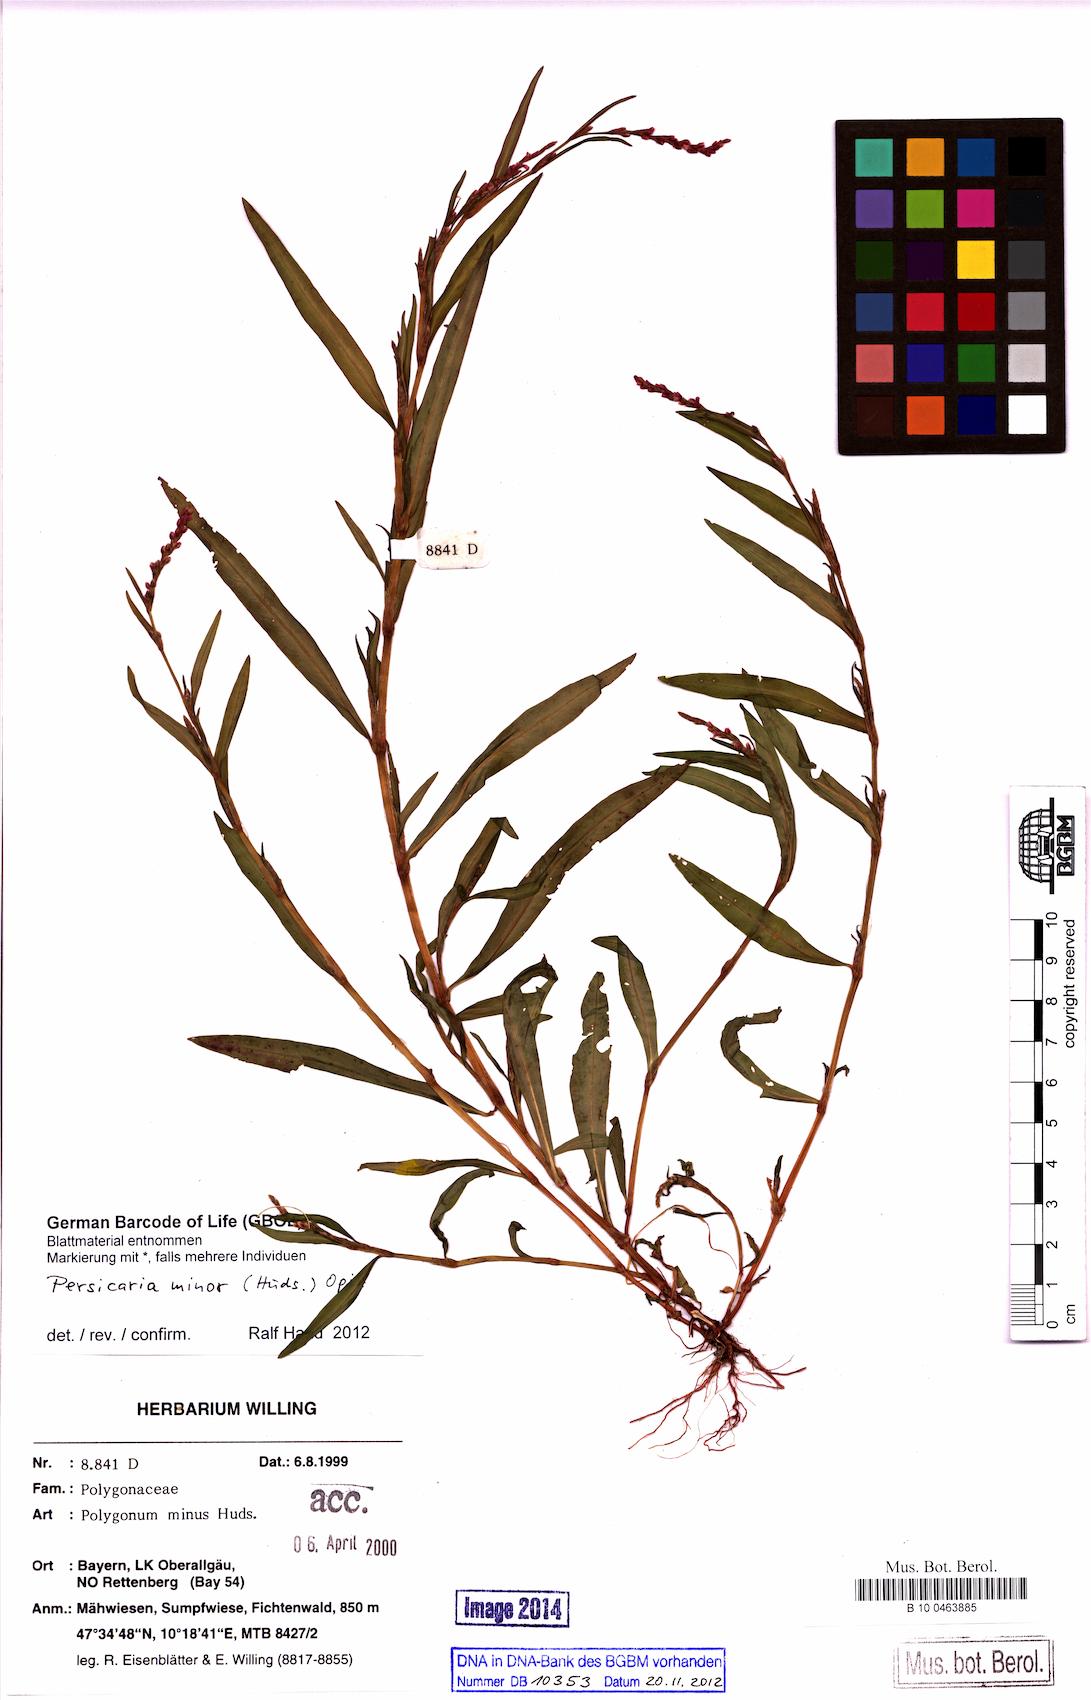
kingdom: Plantae
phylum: Tracheophyta
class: Magnoliopsida
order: Caryophyllales
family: Polygonaceae
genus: Persicaria
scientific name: Persicaria minor
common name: Small water-pepper
